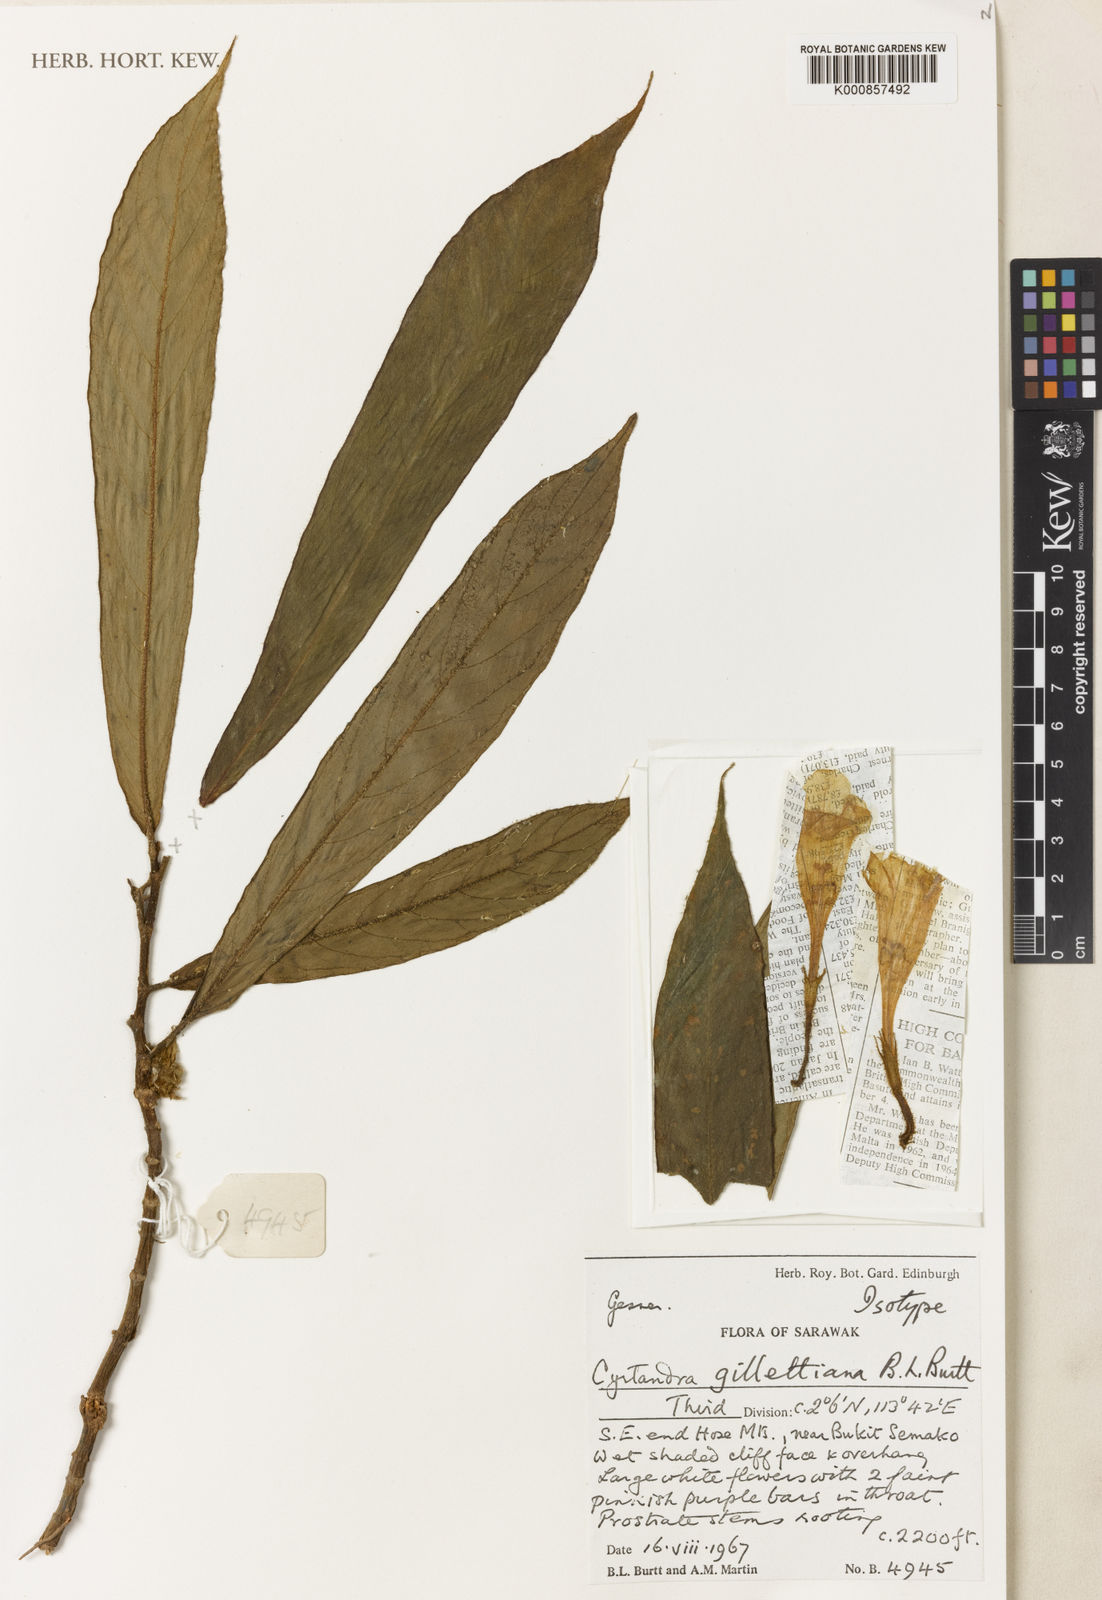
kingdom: Plantae
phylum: Tracheophyta
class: Magnoliopsida
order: Lamiales
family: Gesneriaceae
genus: Cyrtandra
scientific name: Cyrtandra gillettiana
